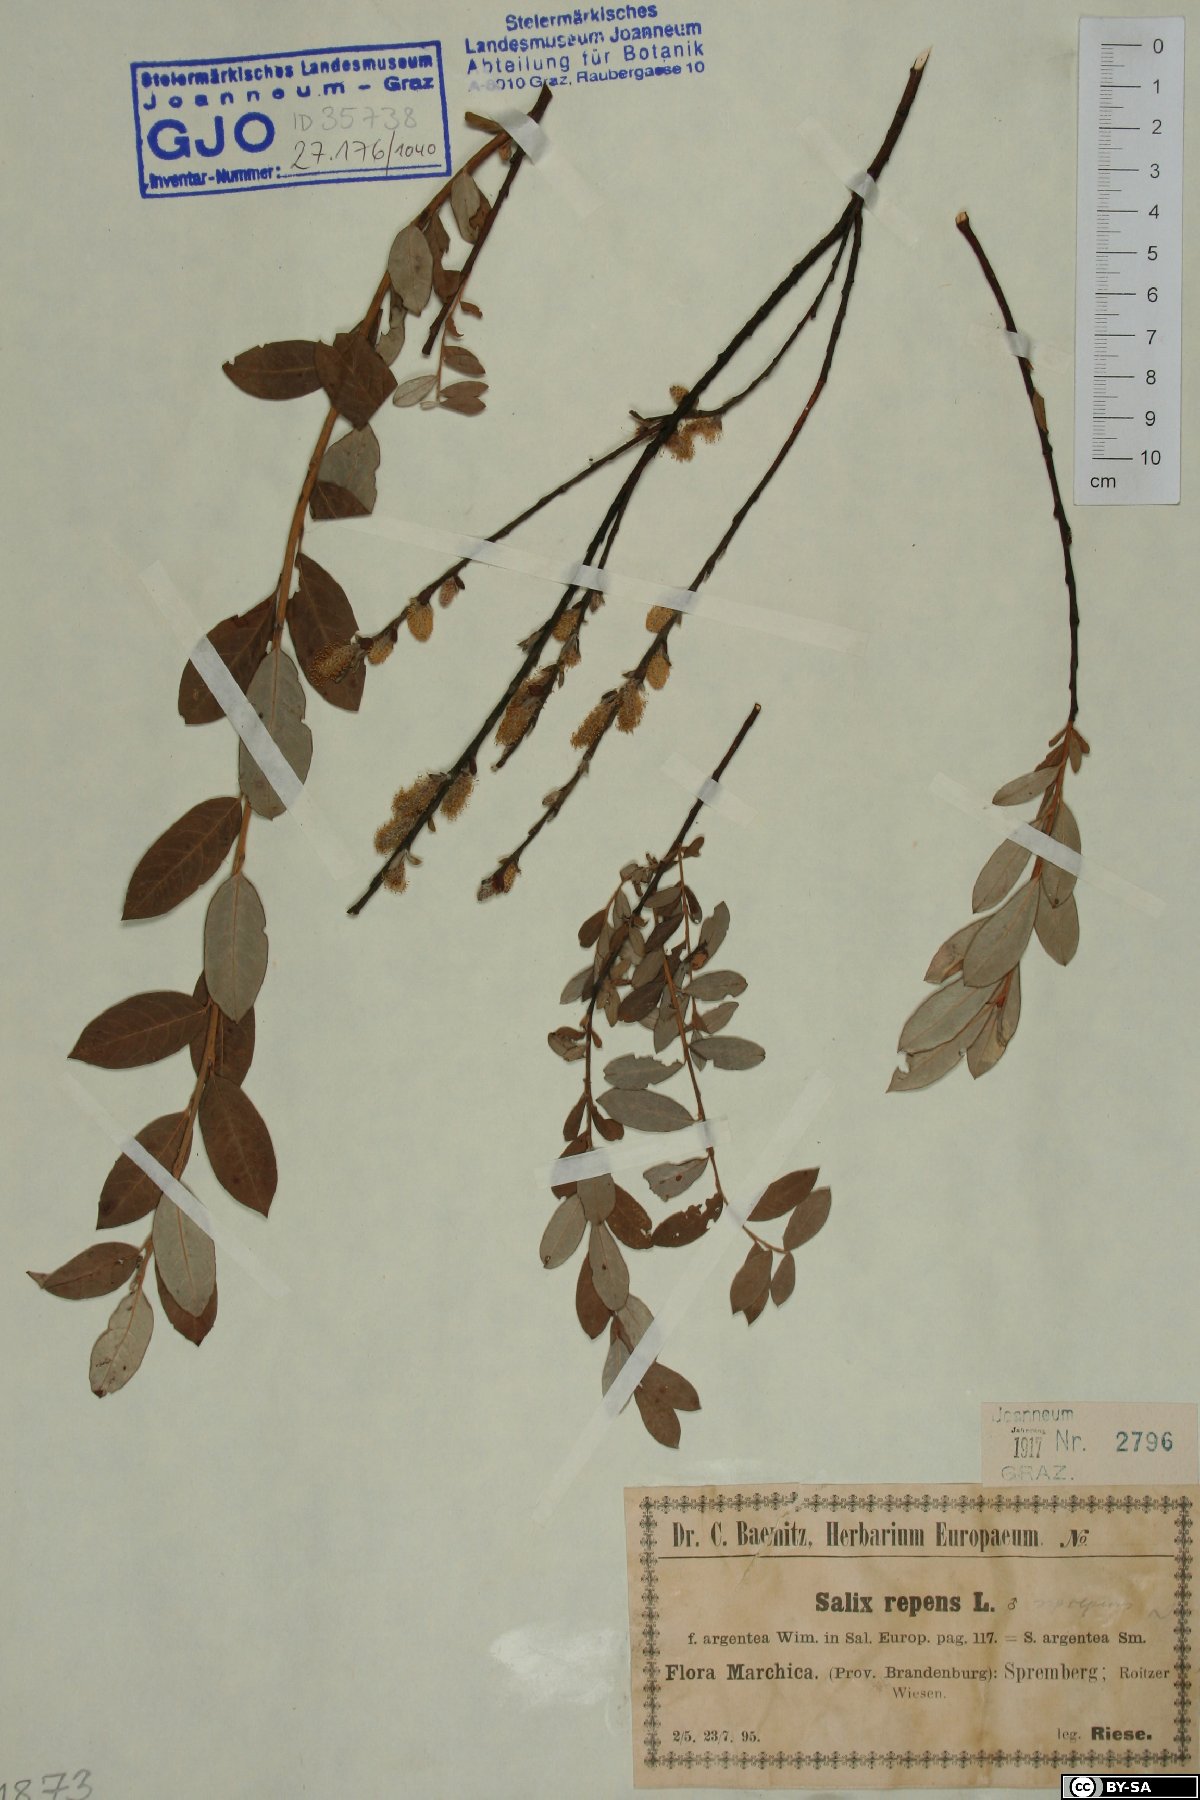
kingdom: Plantae
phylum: Tracheophyta
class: Magnoliopsida
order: Malpighiales
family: Salicaceae
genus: Salix
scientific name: Salix repens
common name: Creeping willow
